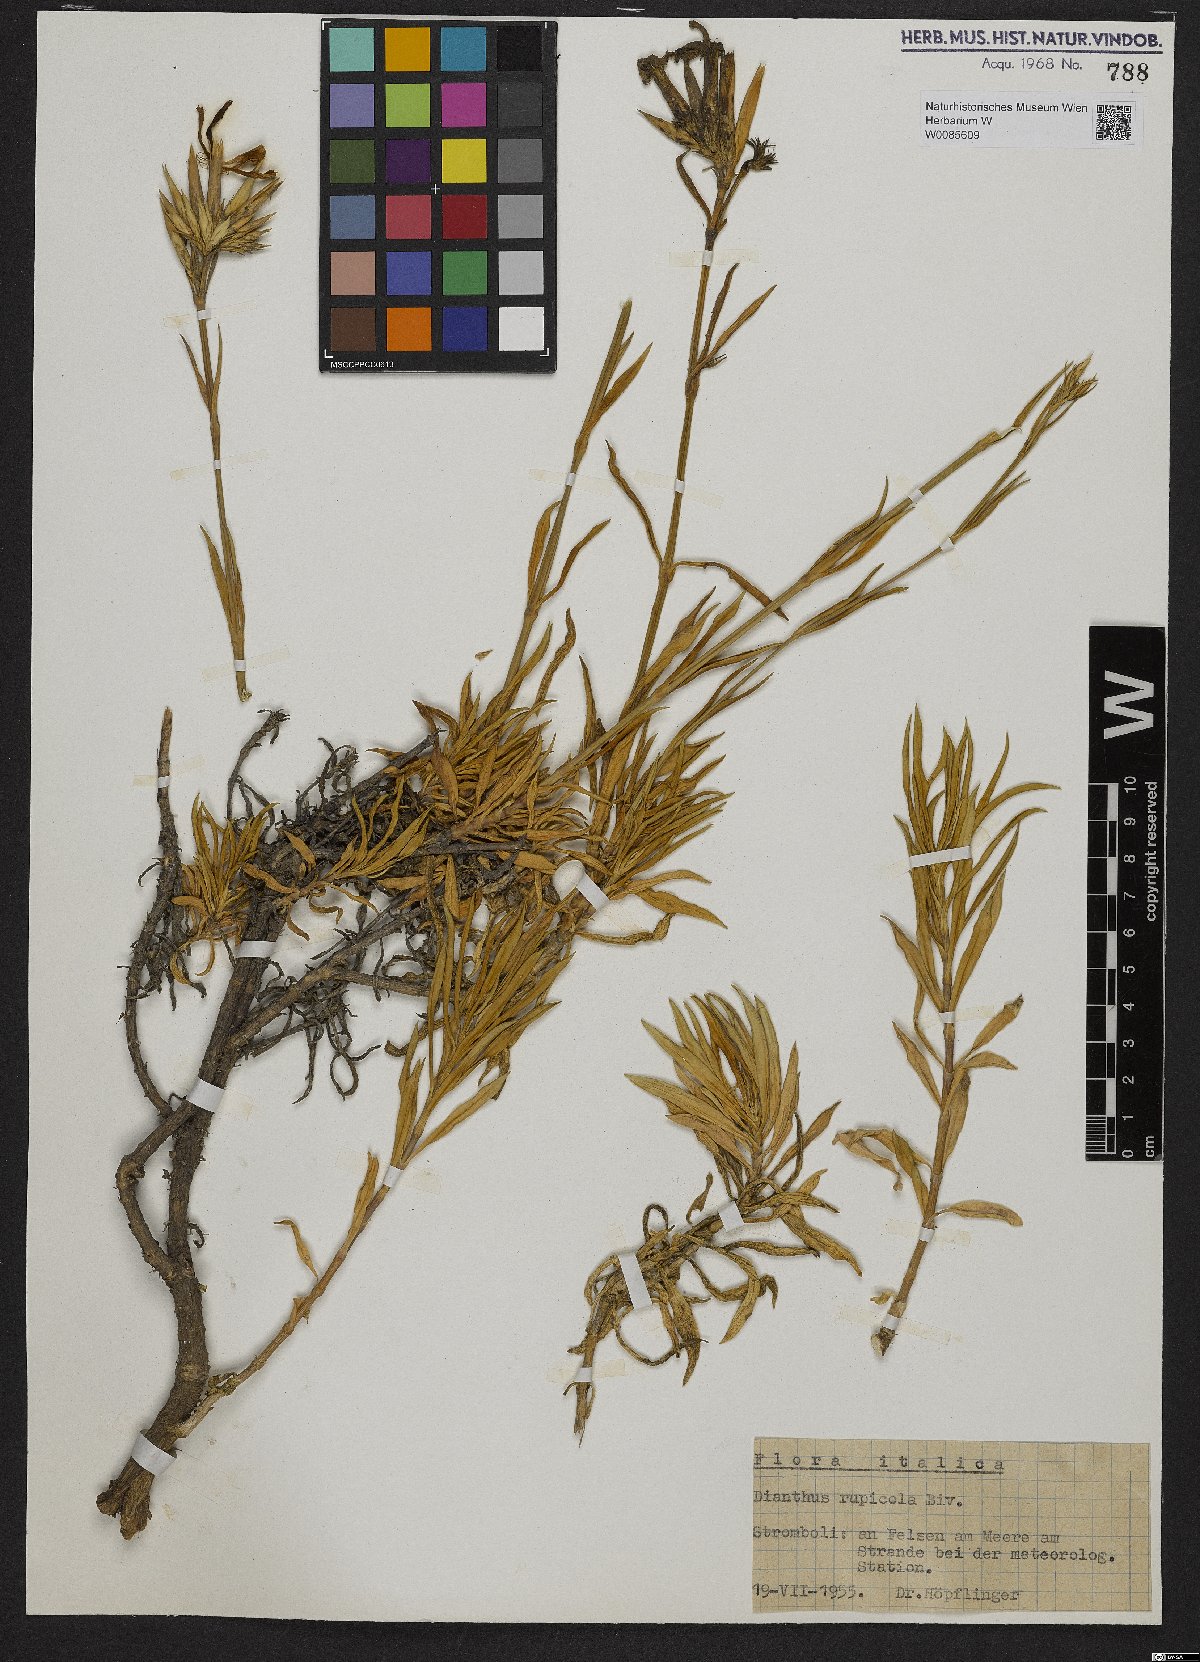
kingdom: Plantae
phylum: Tracheophyta
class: Magnoliopsida
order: Caryophyllales
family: Caryophyllaceae
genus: Dianthus
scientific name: Dianthus rupicola
